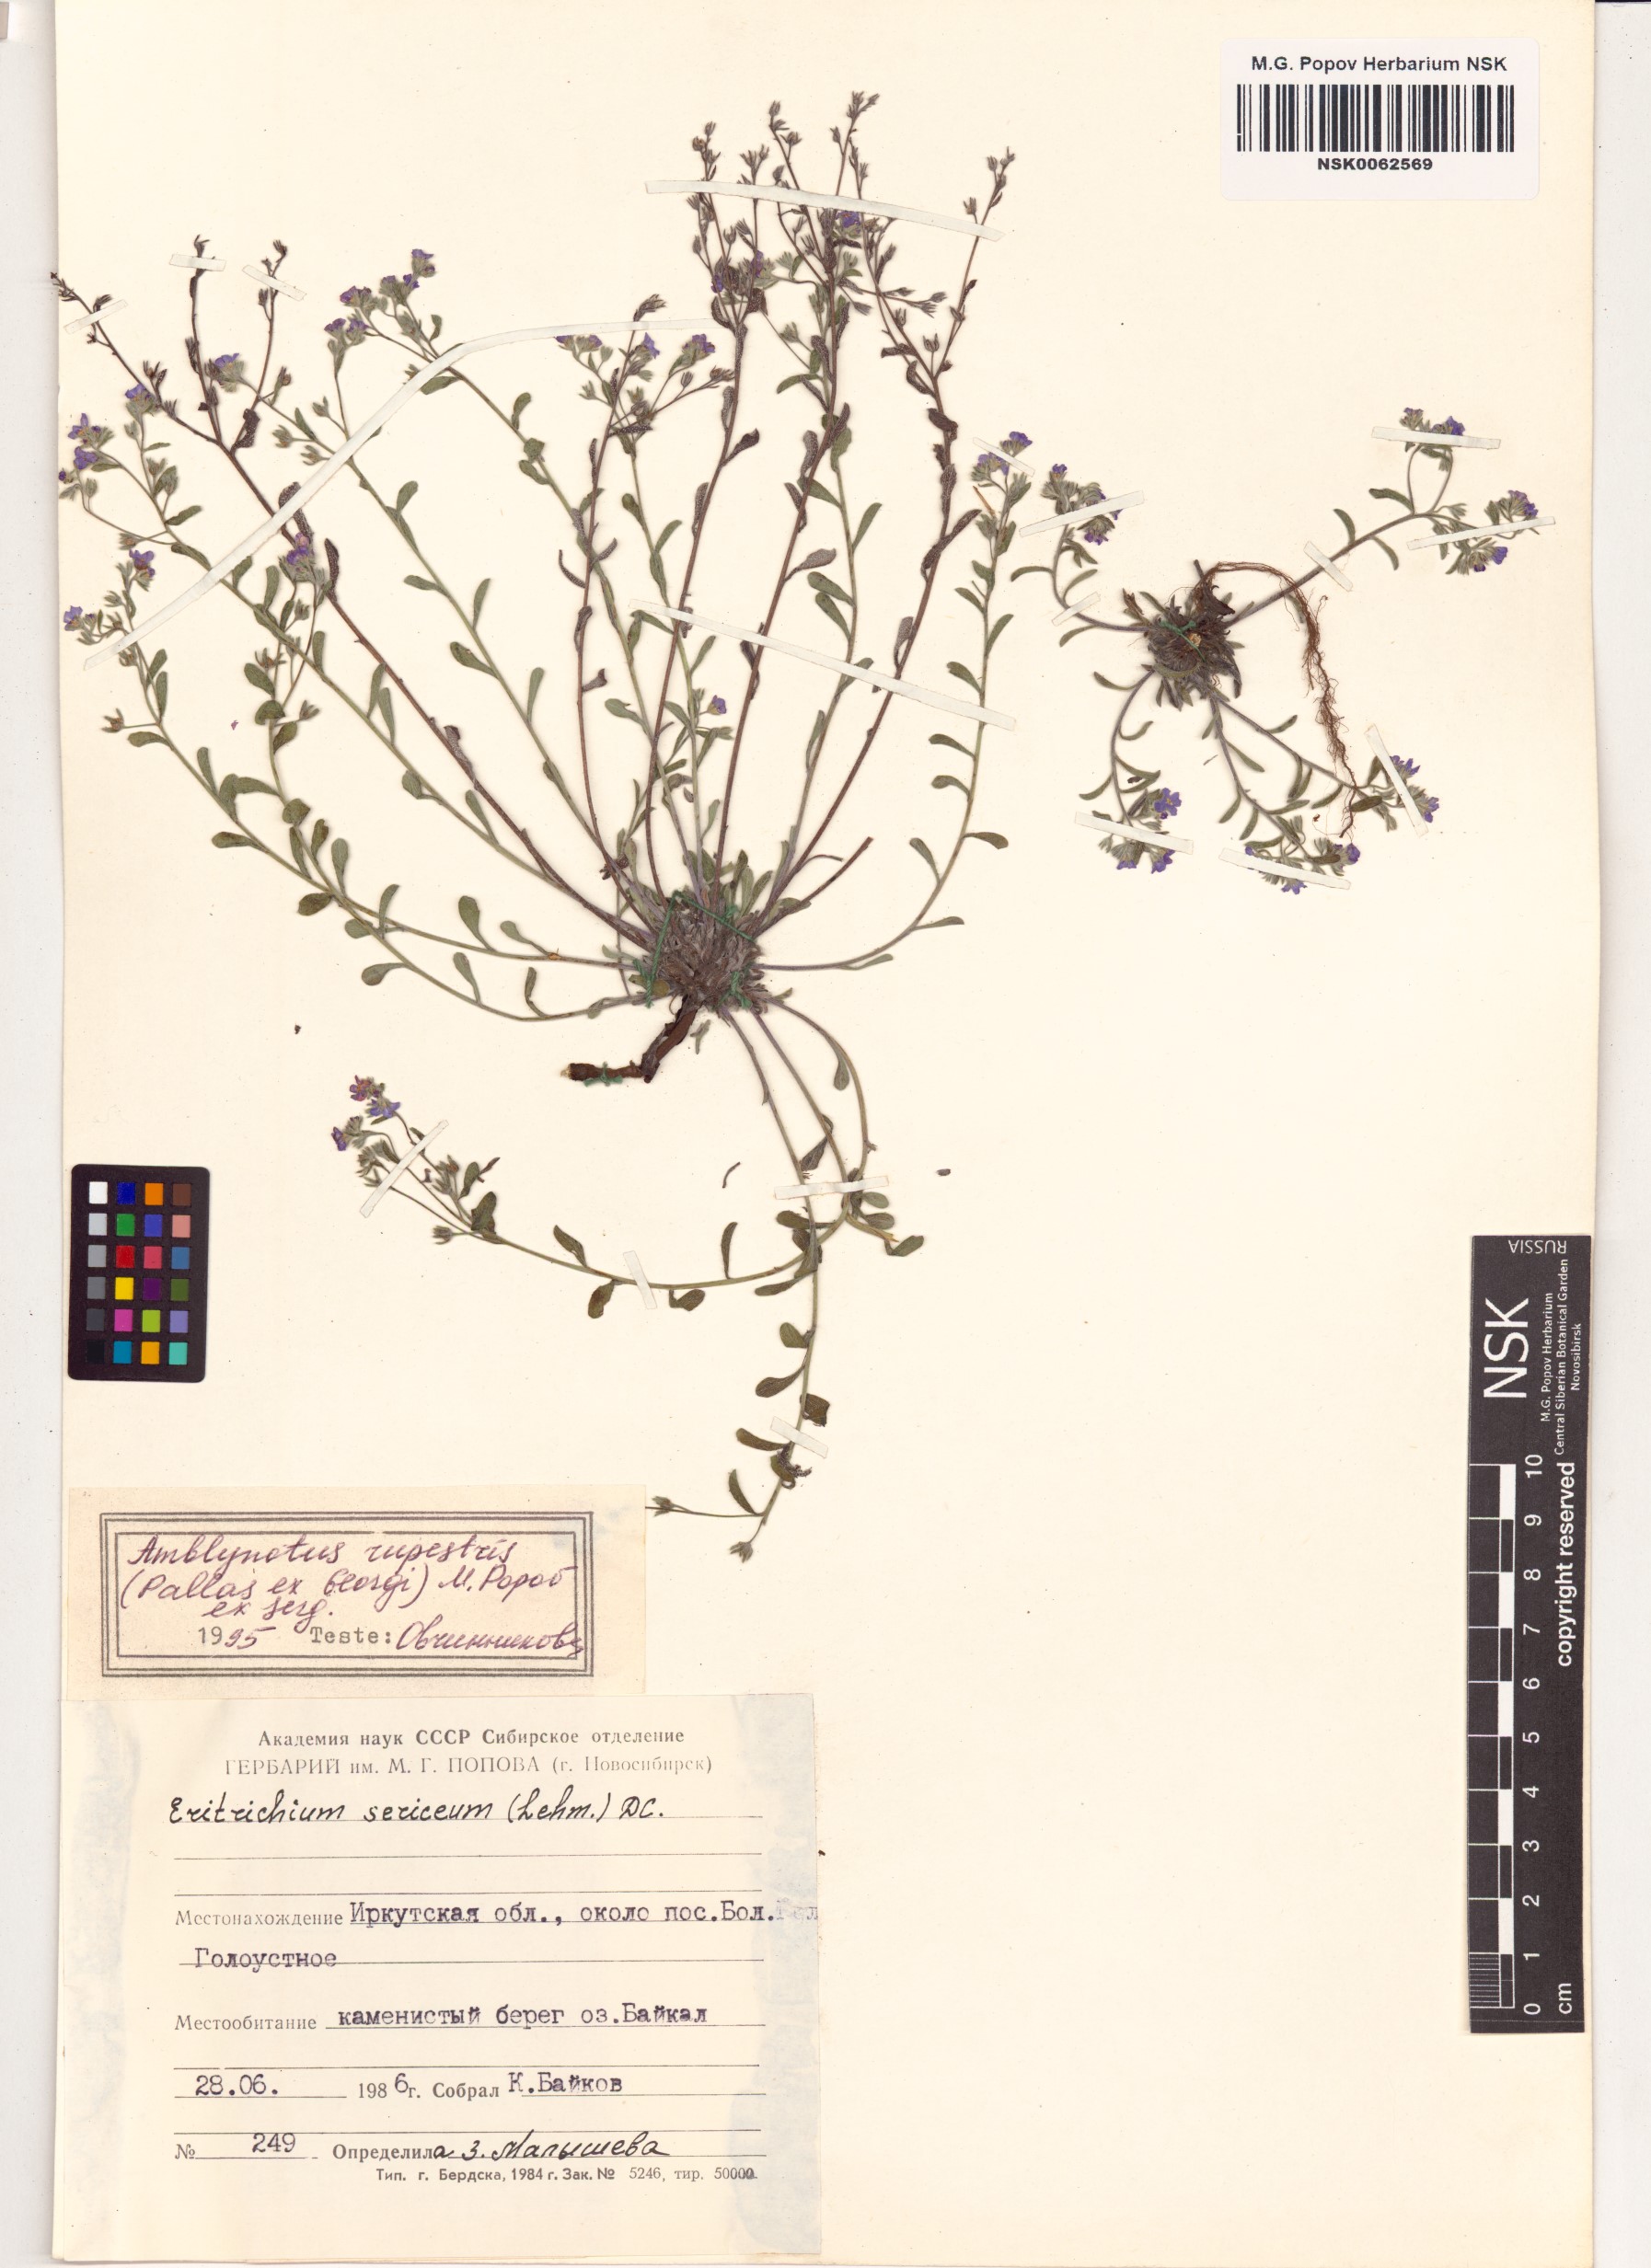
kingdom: Plantae
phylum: Tracheophyta
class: Magnoliopsida
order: Boraginales
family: Boraginaceae
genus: Eritrichium
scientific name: Eritrichium rupestre
